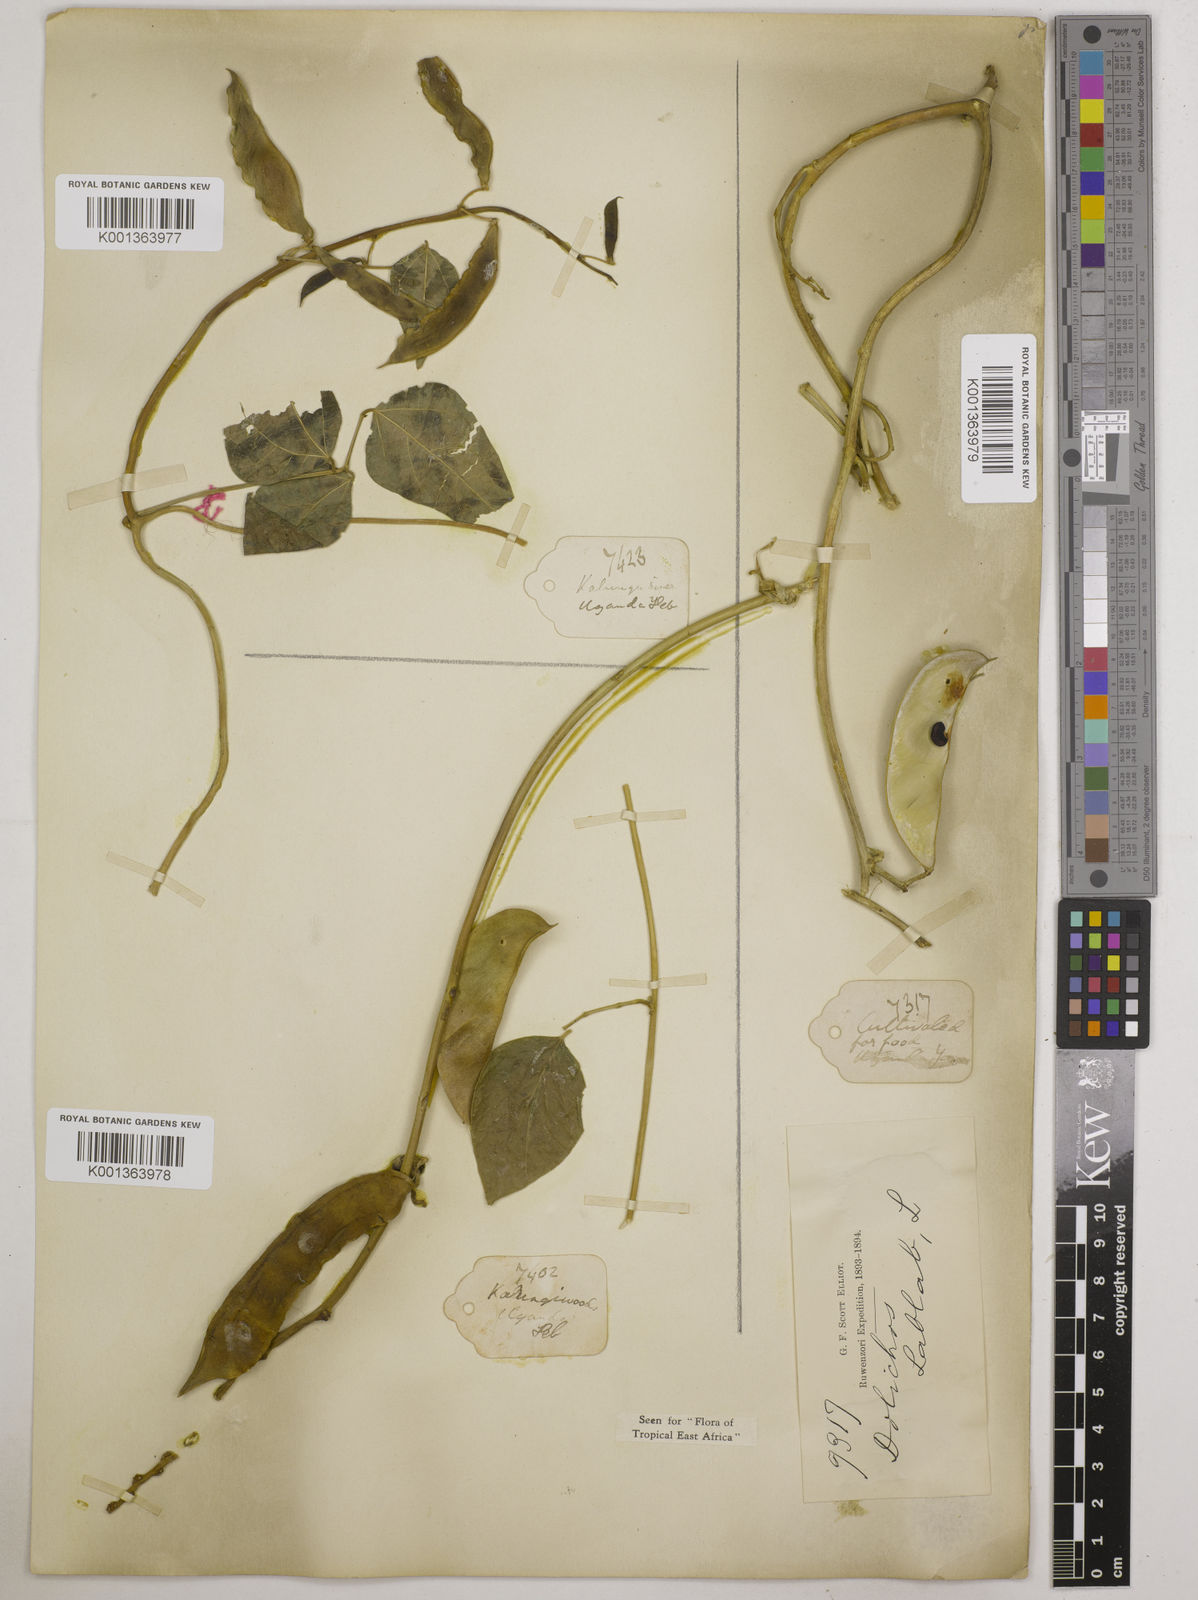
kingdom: Plantae
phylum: Tracheophyta
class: Magnoliopsida
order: Fabales
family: Fabaceae
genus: Phaseolus
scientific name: Phaseolus lunatus
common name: Sieva bean
